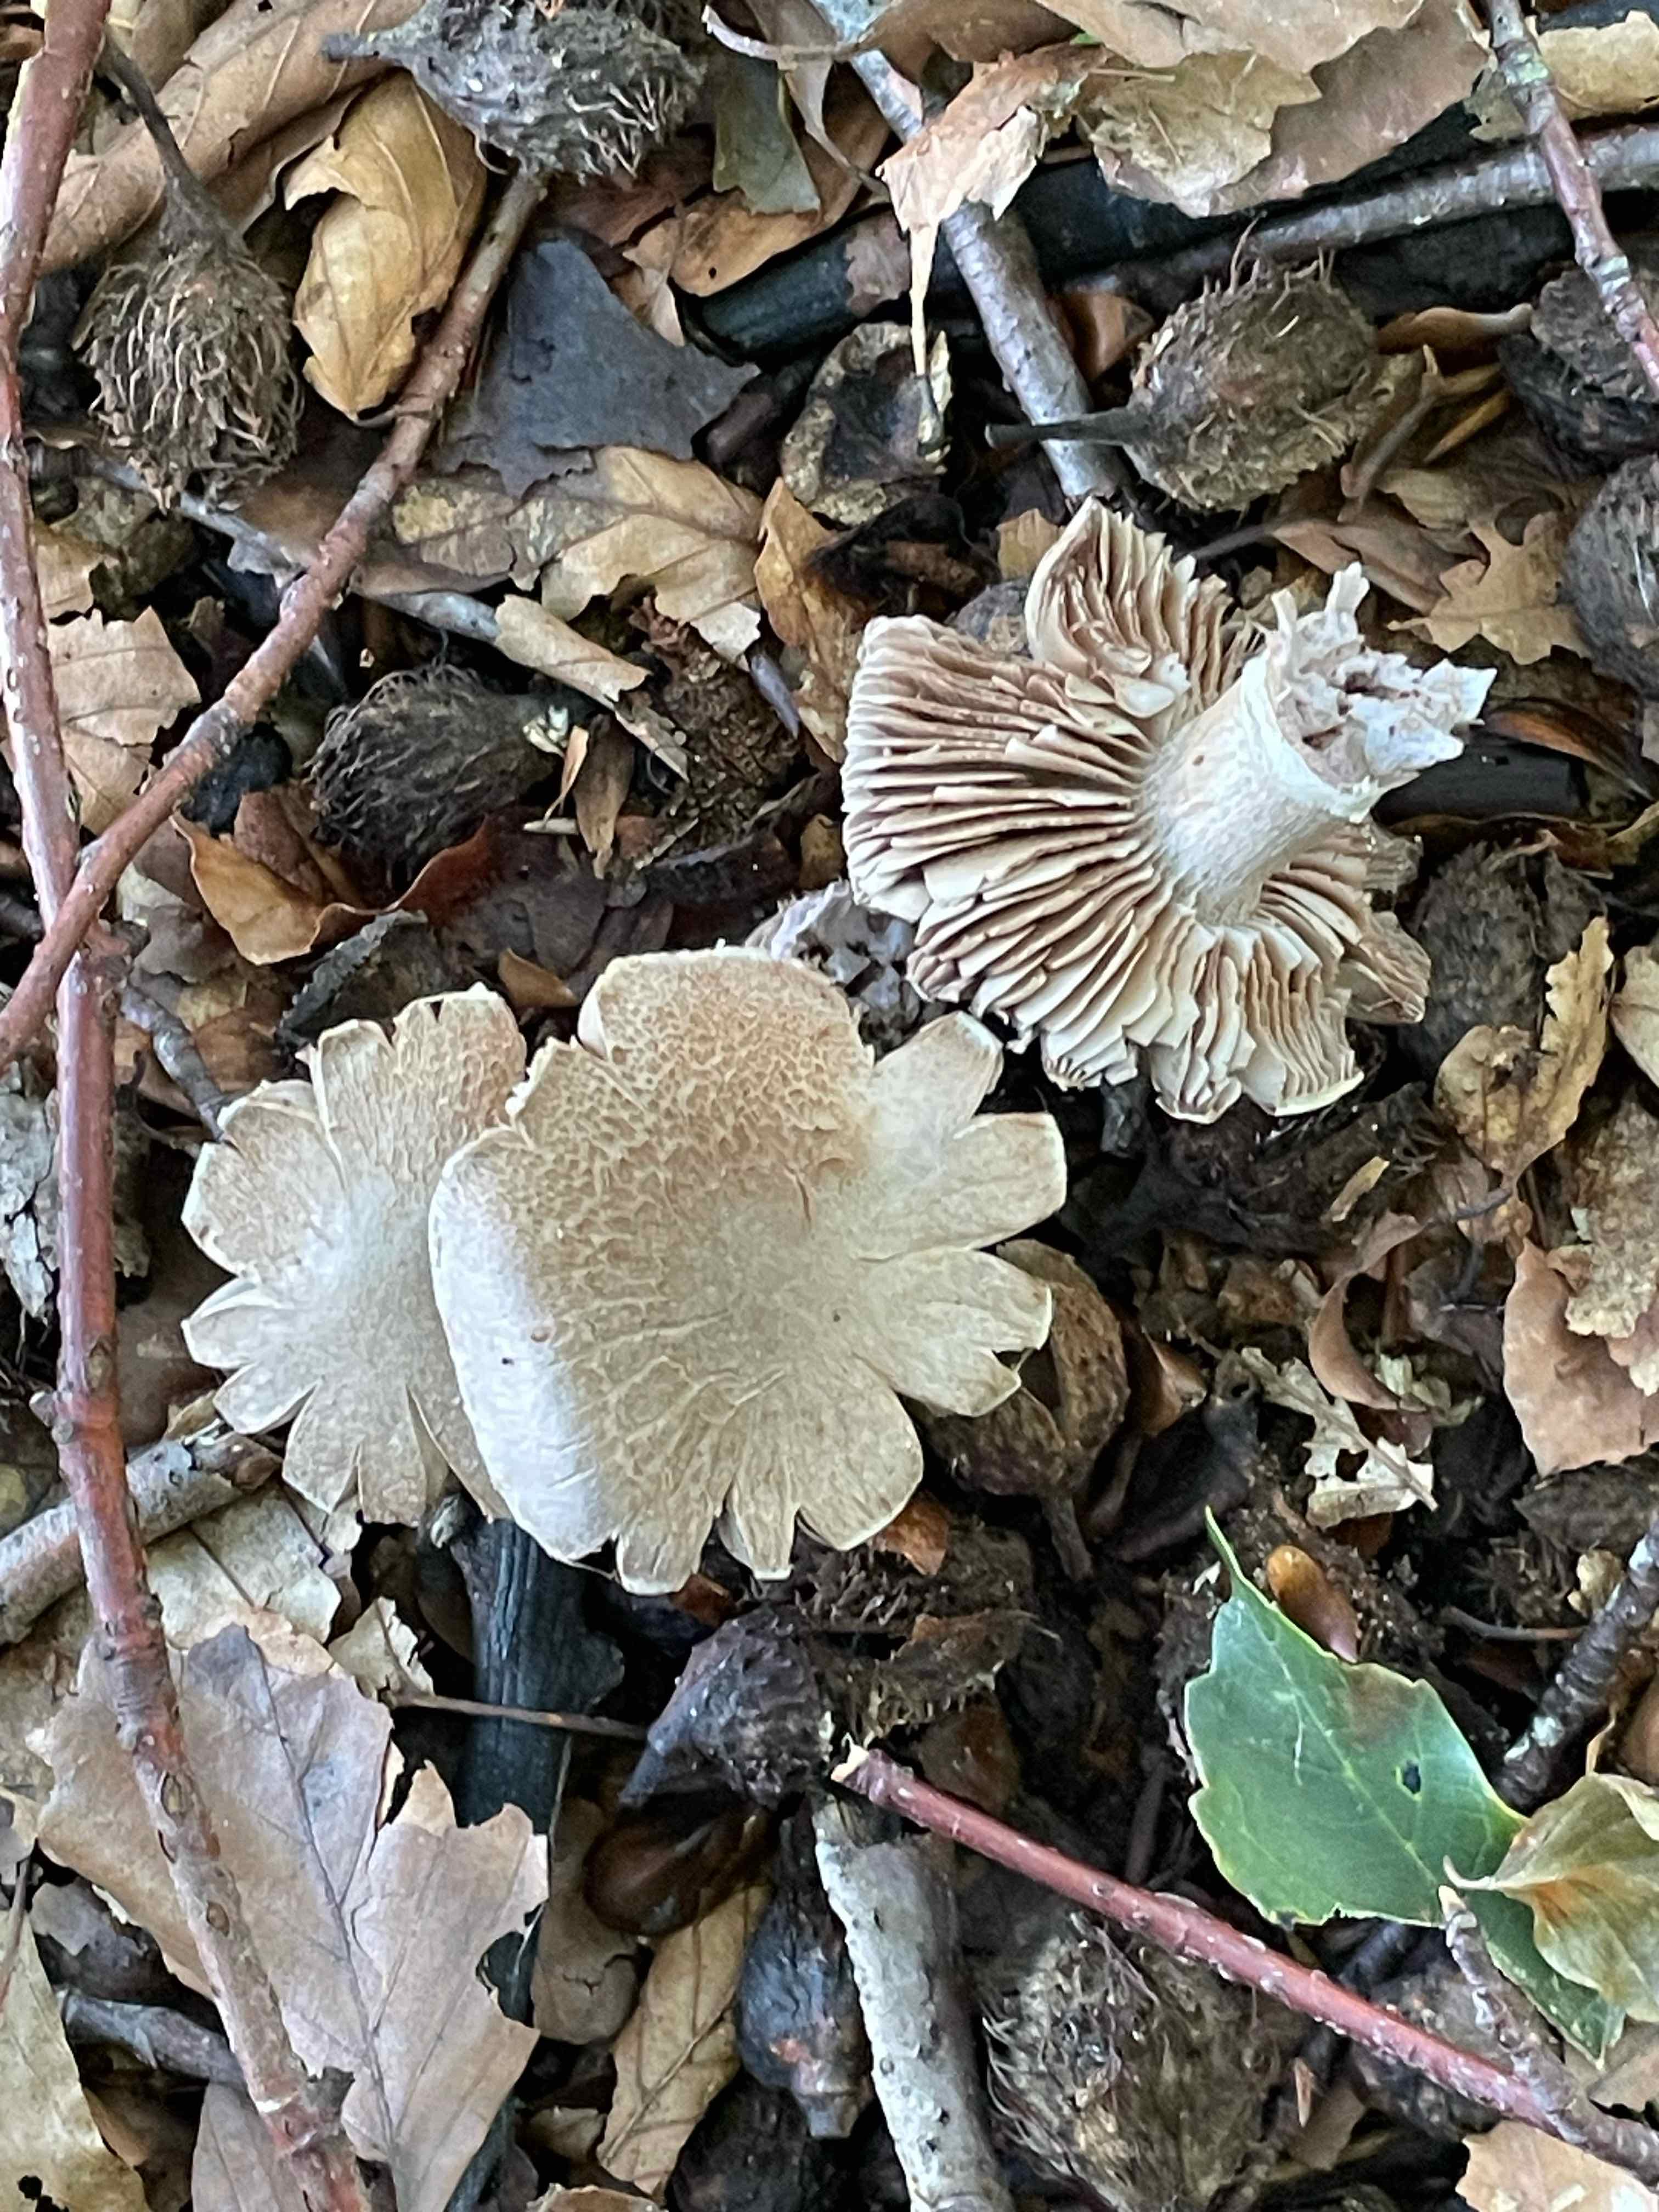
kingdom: Fungi
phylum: Basidiomycota
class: Agaricomycetes
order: Agaricales
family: Cortinariaceae
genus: Cortinarius
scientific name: Cortinarius torvus
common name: champignonagtig slørhat
